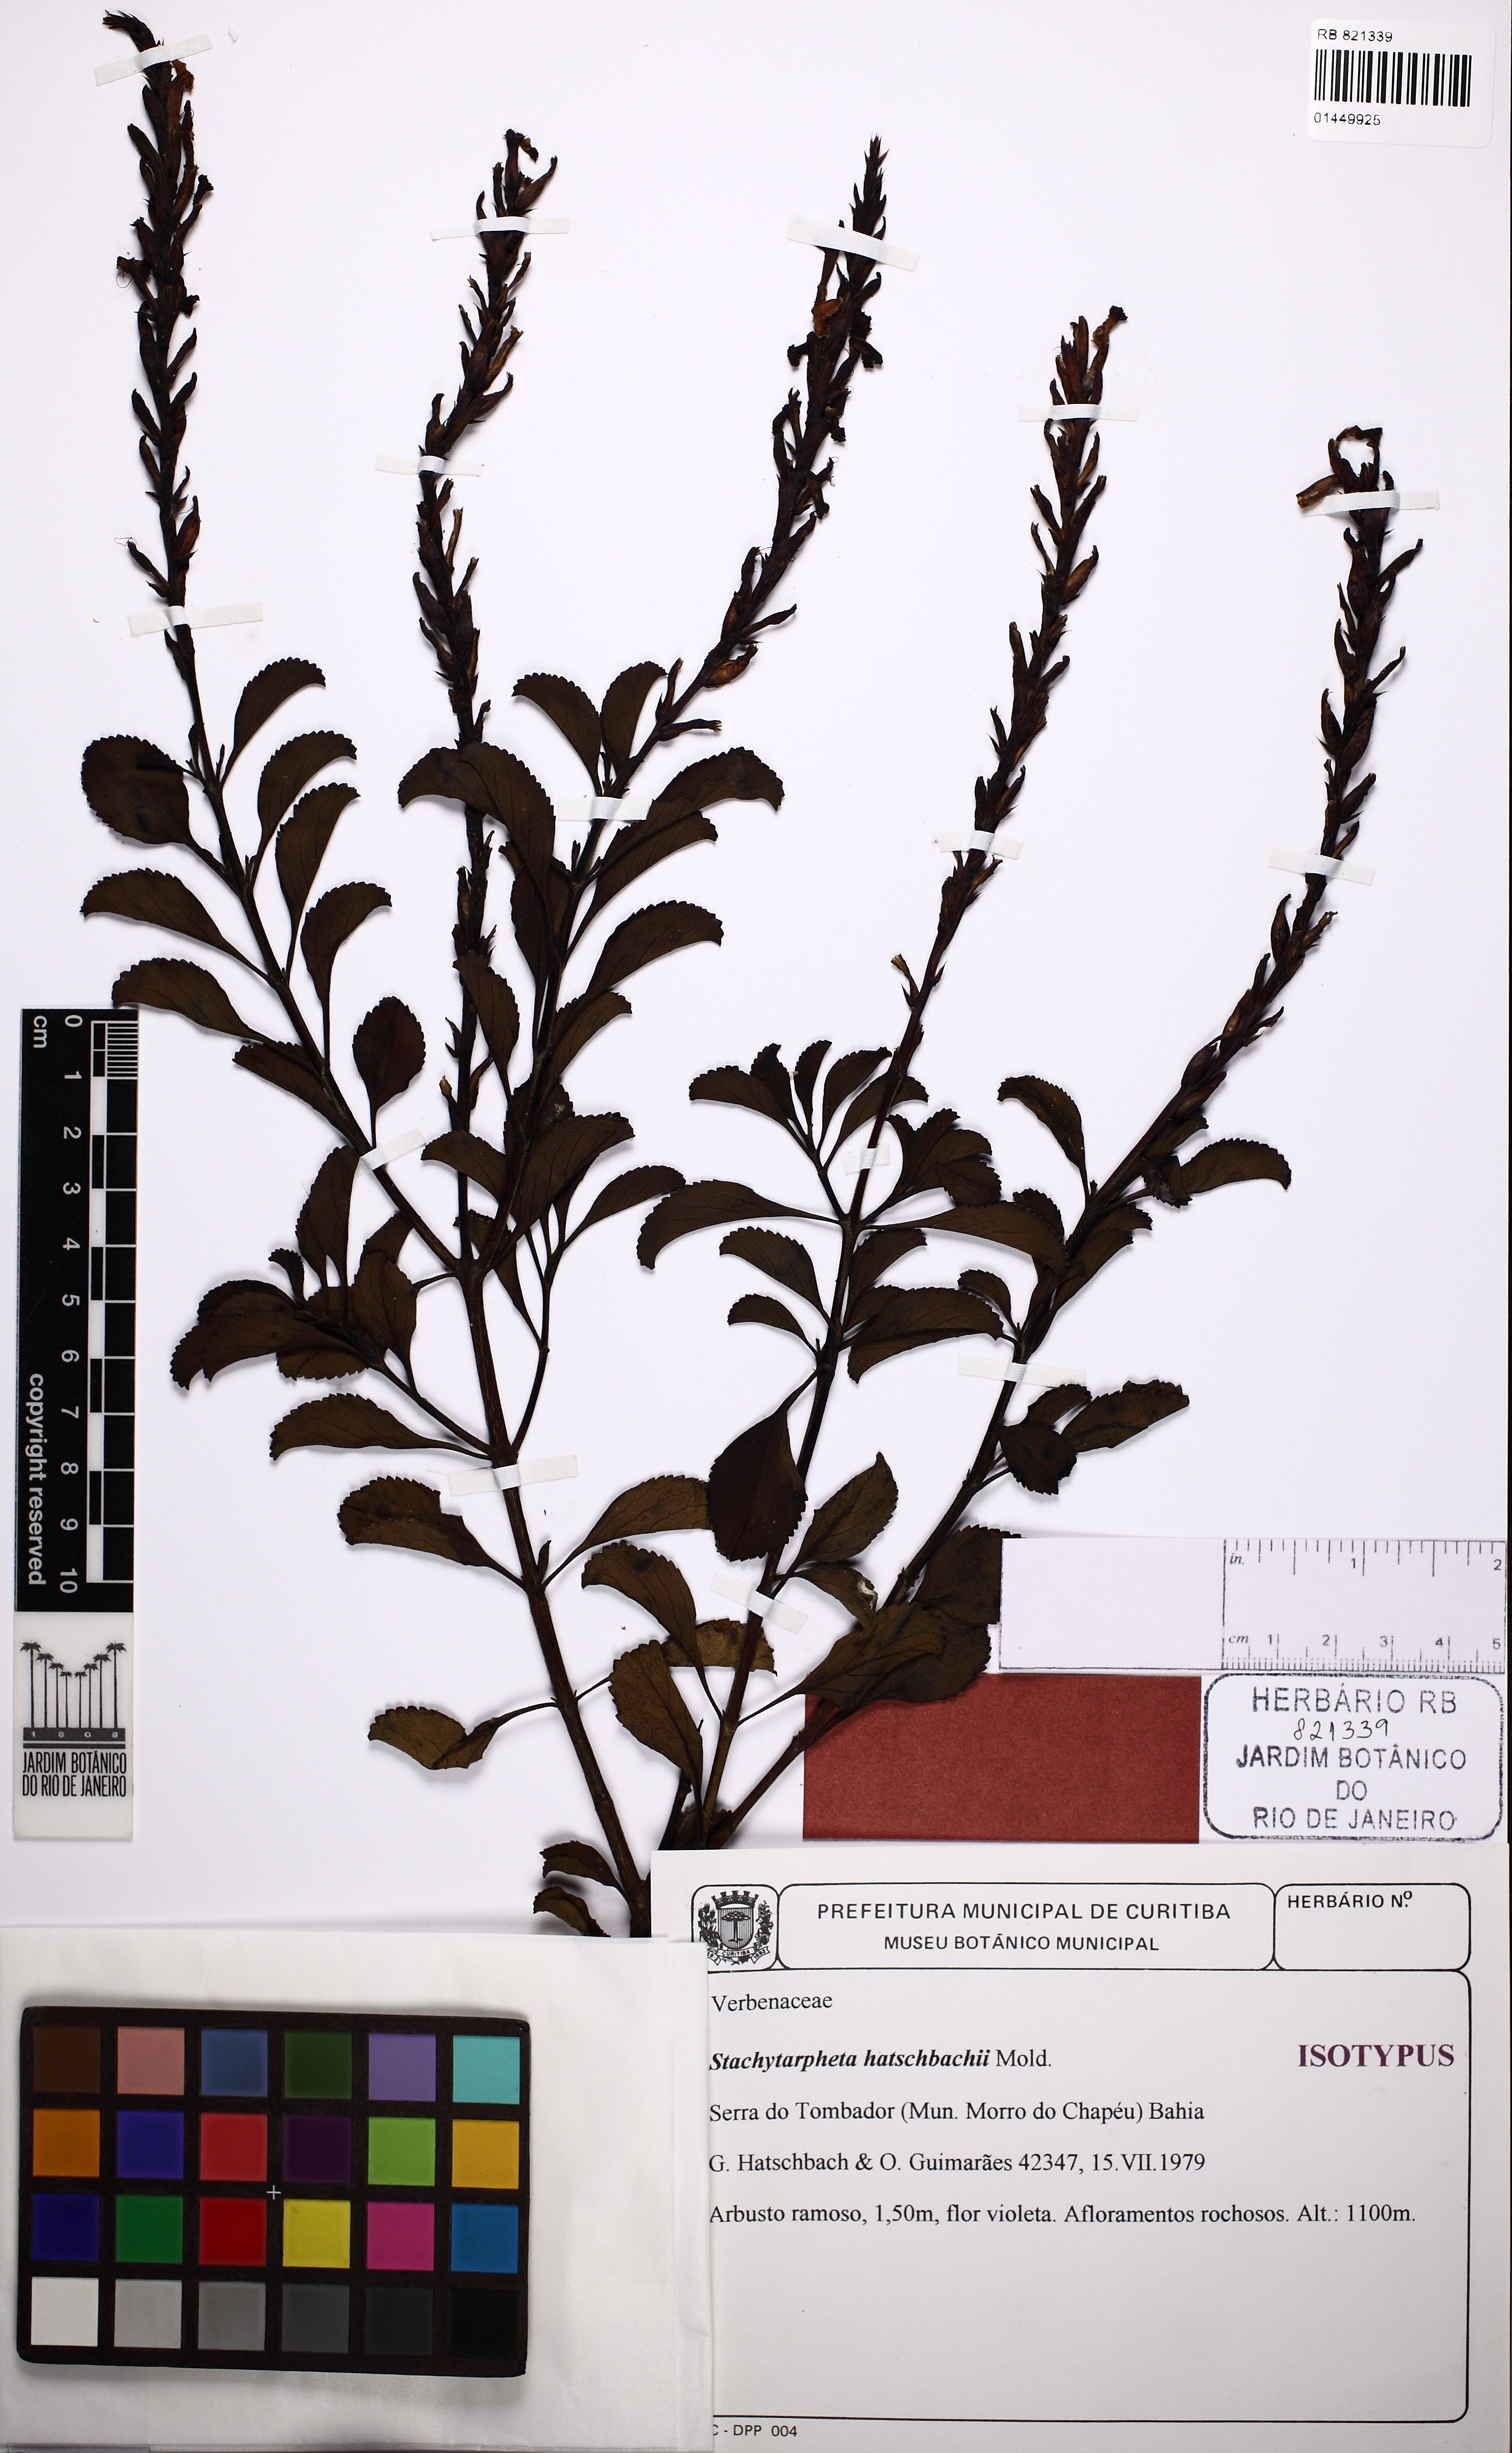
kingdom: Plantae
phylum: Tracheophyta
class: Magnoliopsida
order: Lamiales
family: Verbenaceae
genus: Stachytarpheta
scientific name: Stachytarpheta hatschbachii
